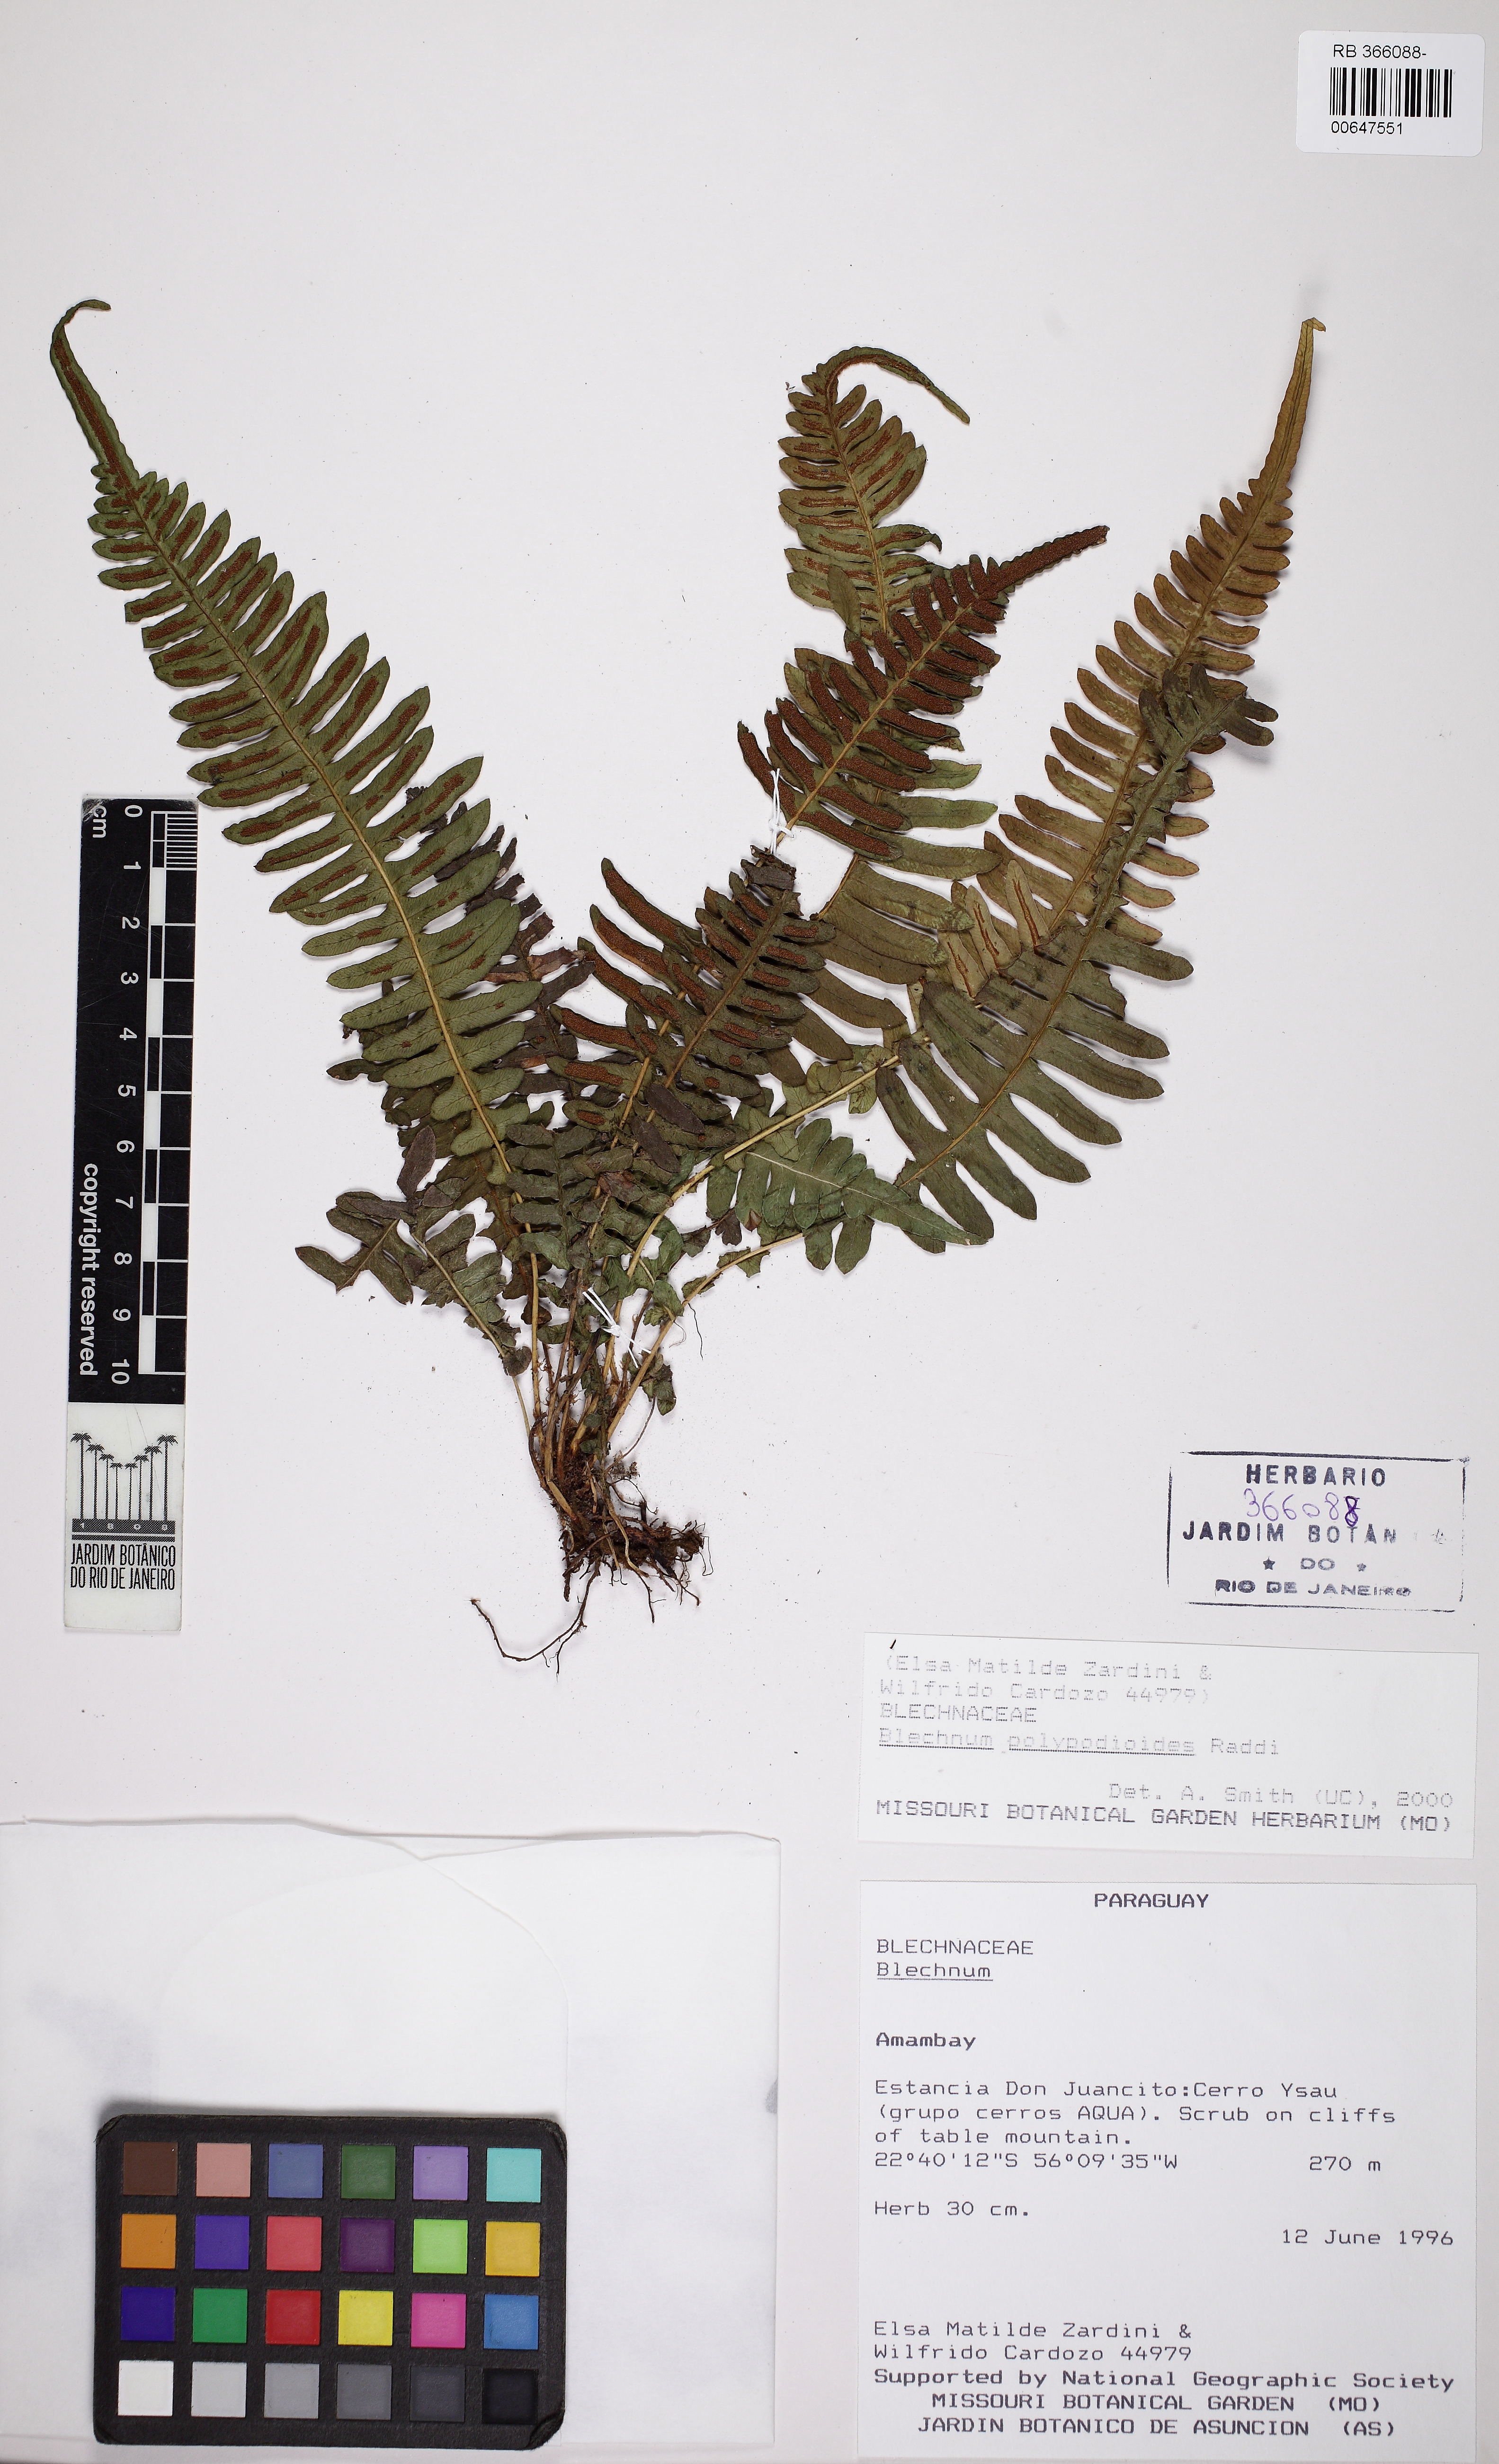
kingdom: Plantae
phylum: Tracheophyta
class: Polypodiopsida
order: Polypodiales
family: Blechnaceae
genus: Blechnum
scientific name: Blechnum polypodioides
